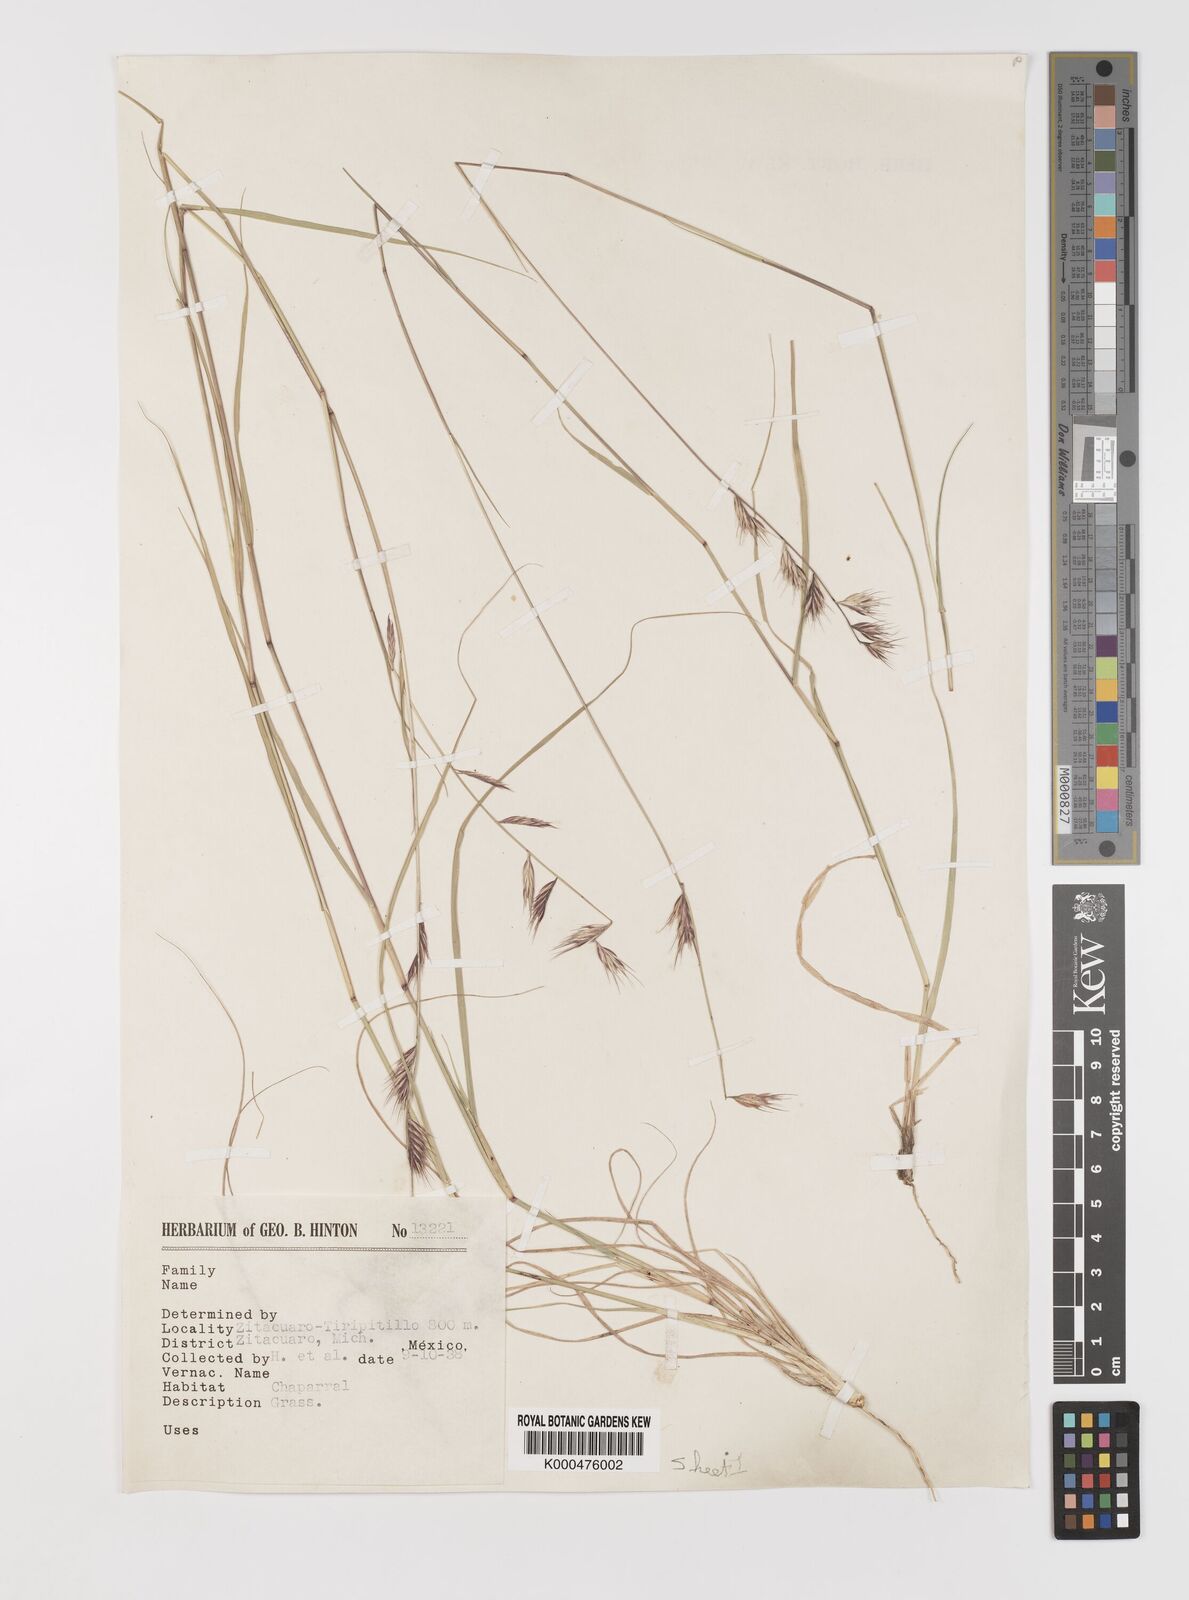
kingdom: Plantae
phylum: Tracheophyta
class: Liliopsida
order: Poales
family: Poaceae
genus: Bouteloua
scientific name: Bouteloua repens
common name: Slender grama
